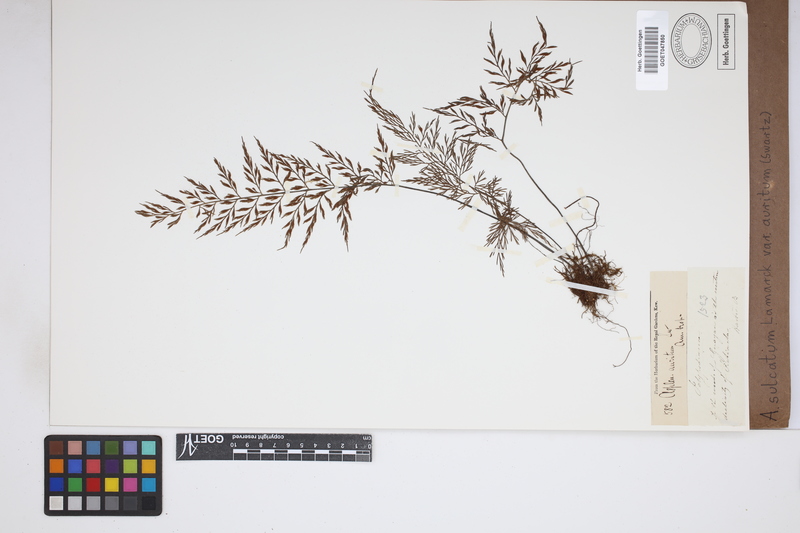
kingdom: Plantae
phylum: Tracheophyta
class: Polypodiopsida
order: Polypodiales
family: Aspleniaceae
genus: Asplenium
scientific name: Asplenium auritum
